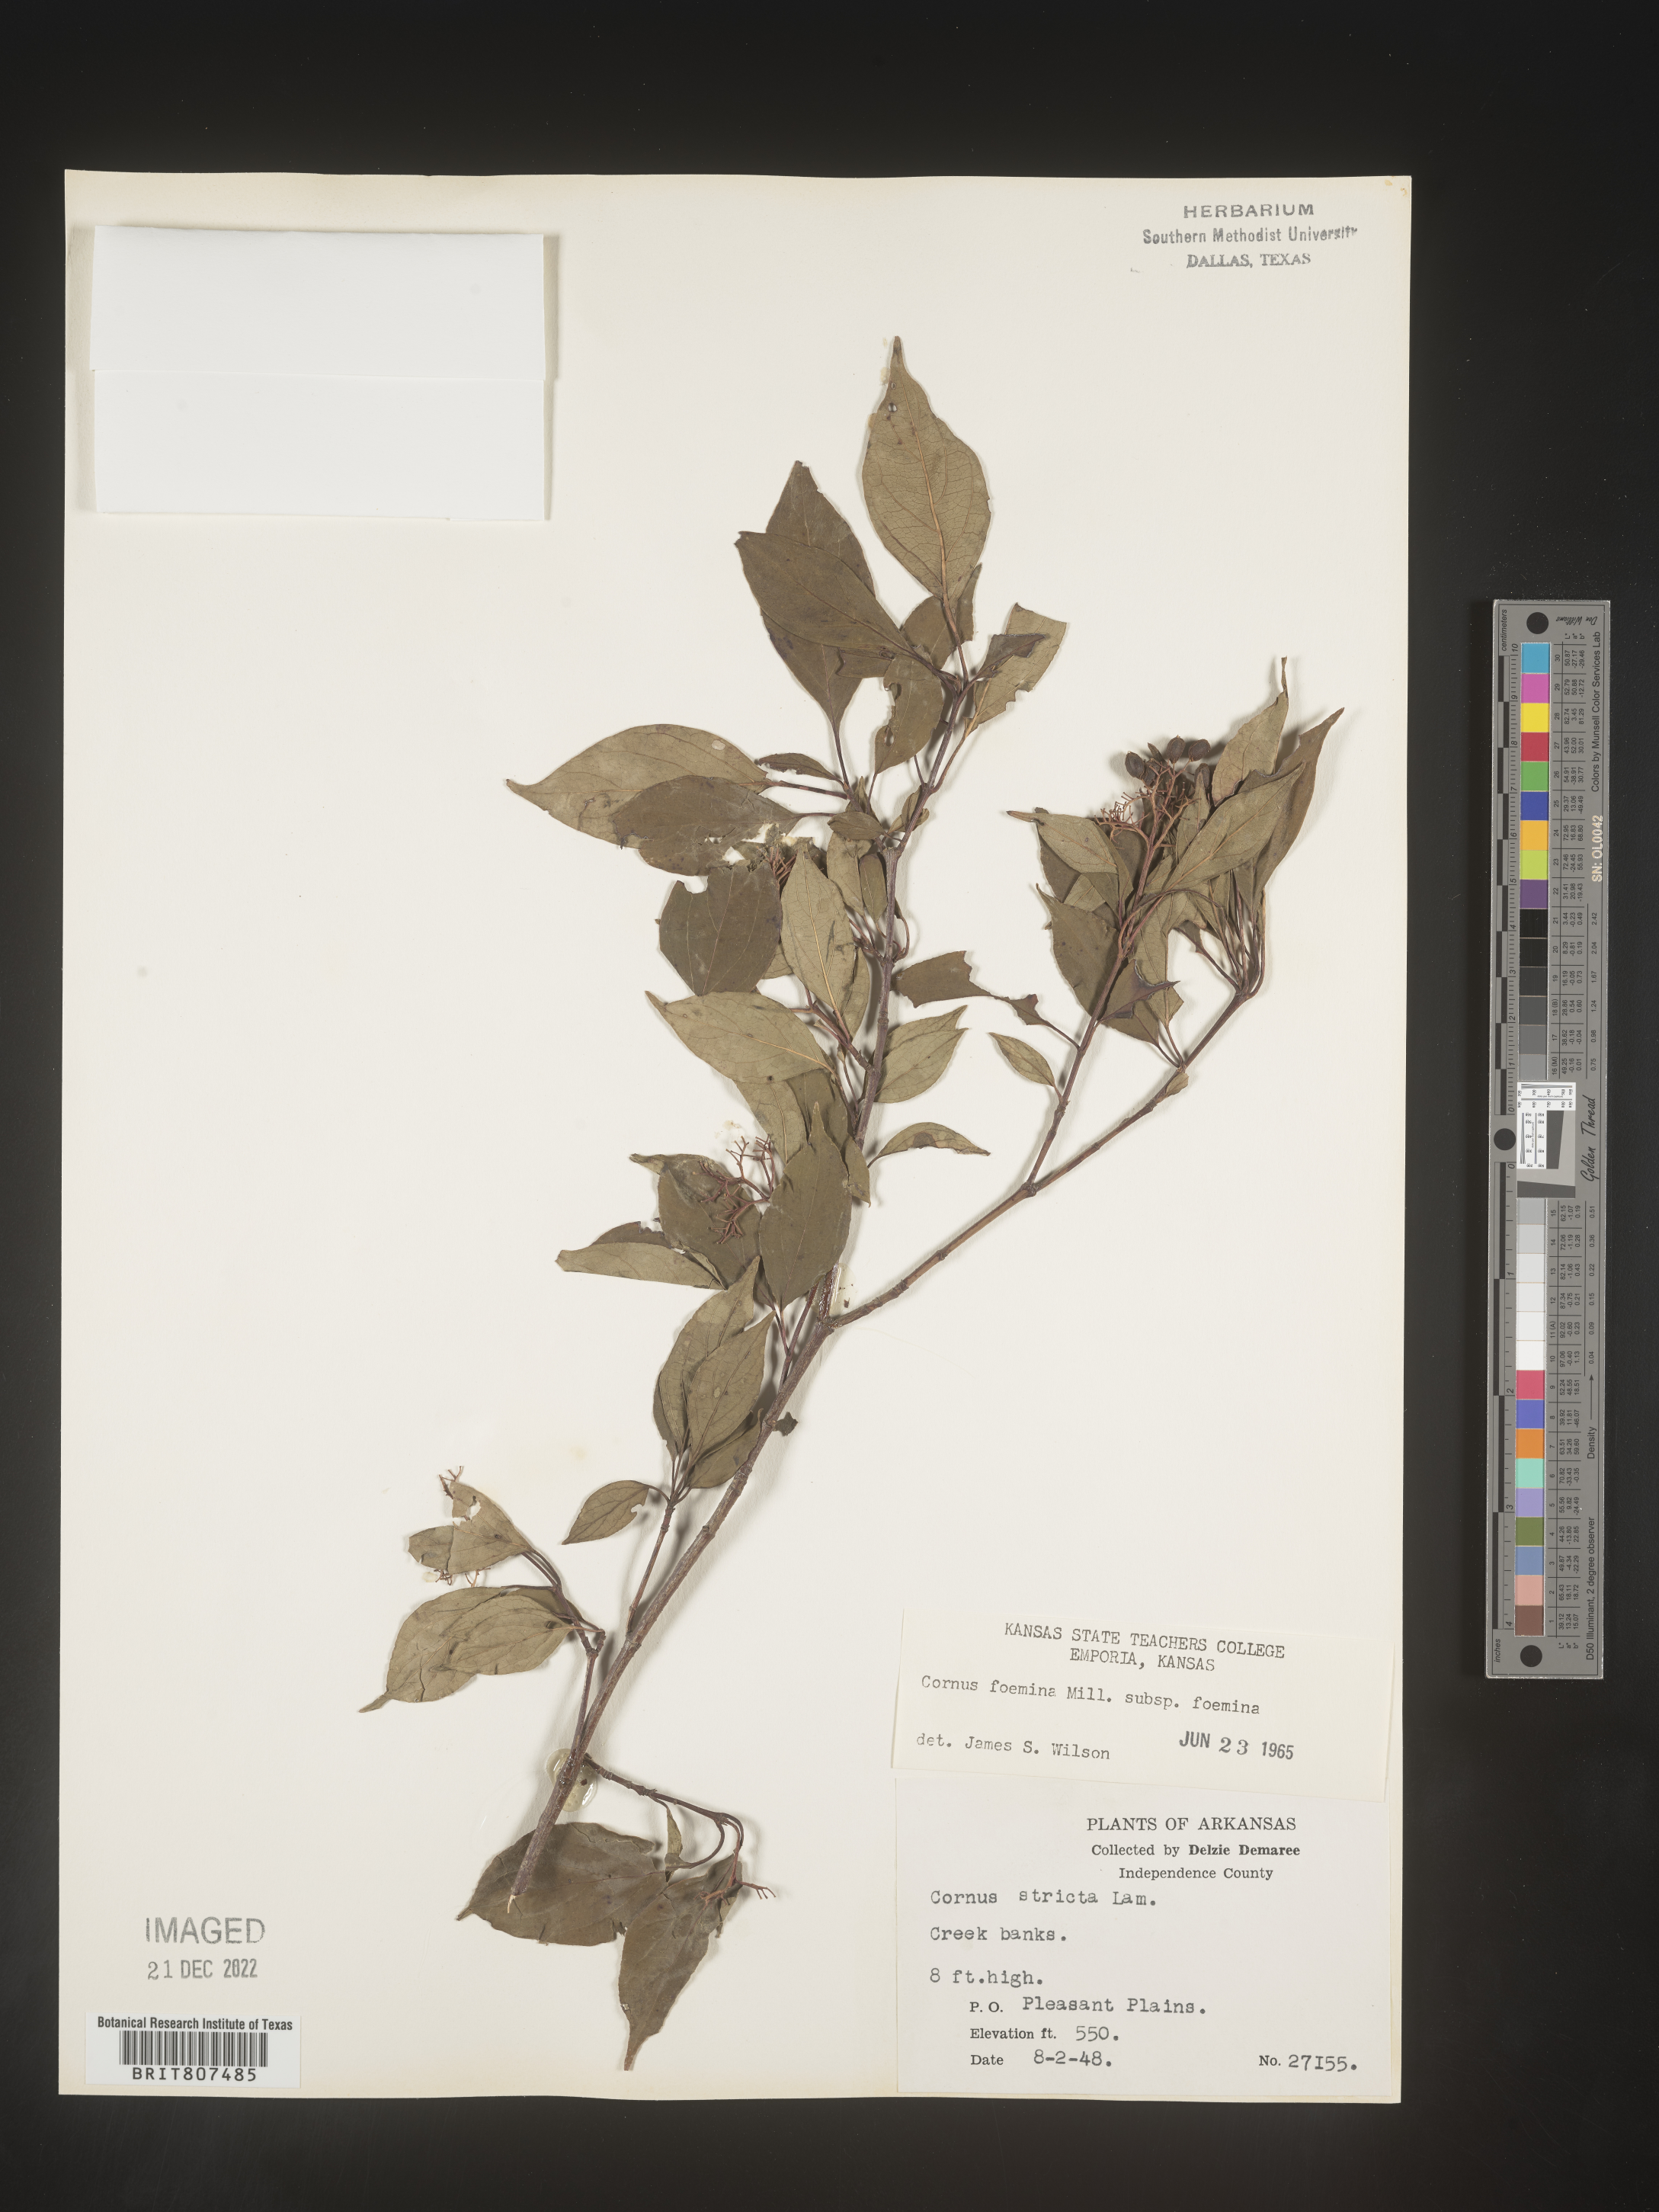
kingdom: Plantae
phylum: Tracheophyta
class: Magnoliopsida
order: Cornales
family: Cornaceae
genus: Cornus
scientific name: Cornus foemina
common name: Swamp dogwood
